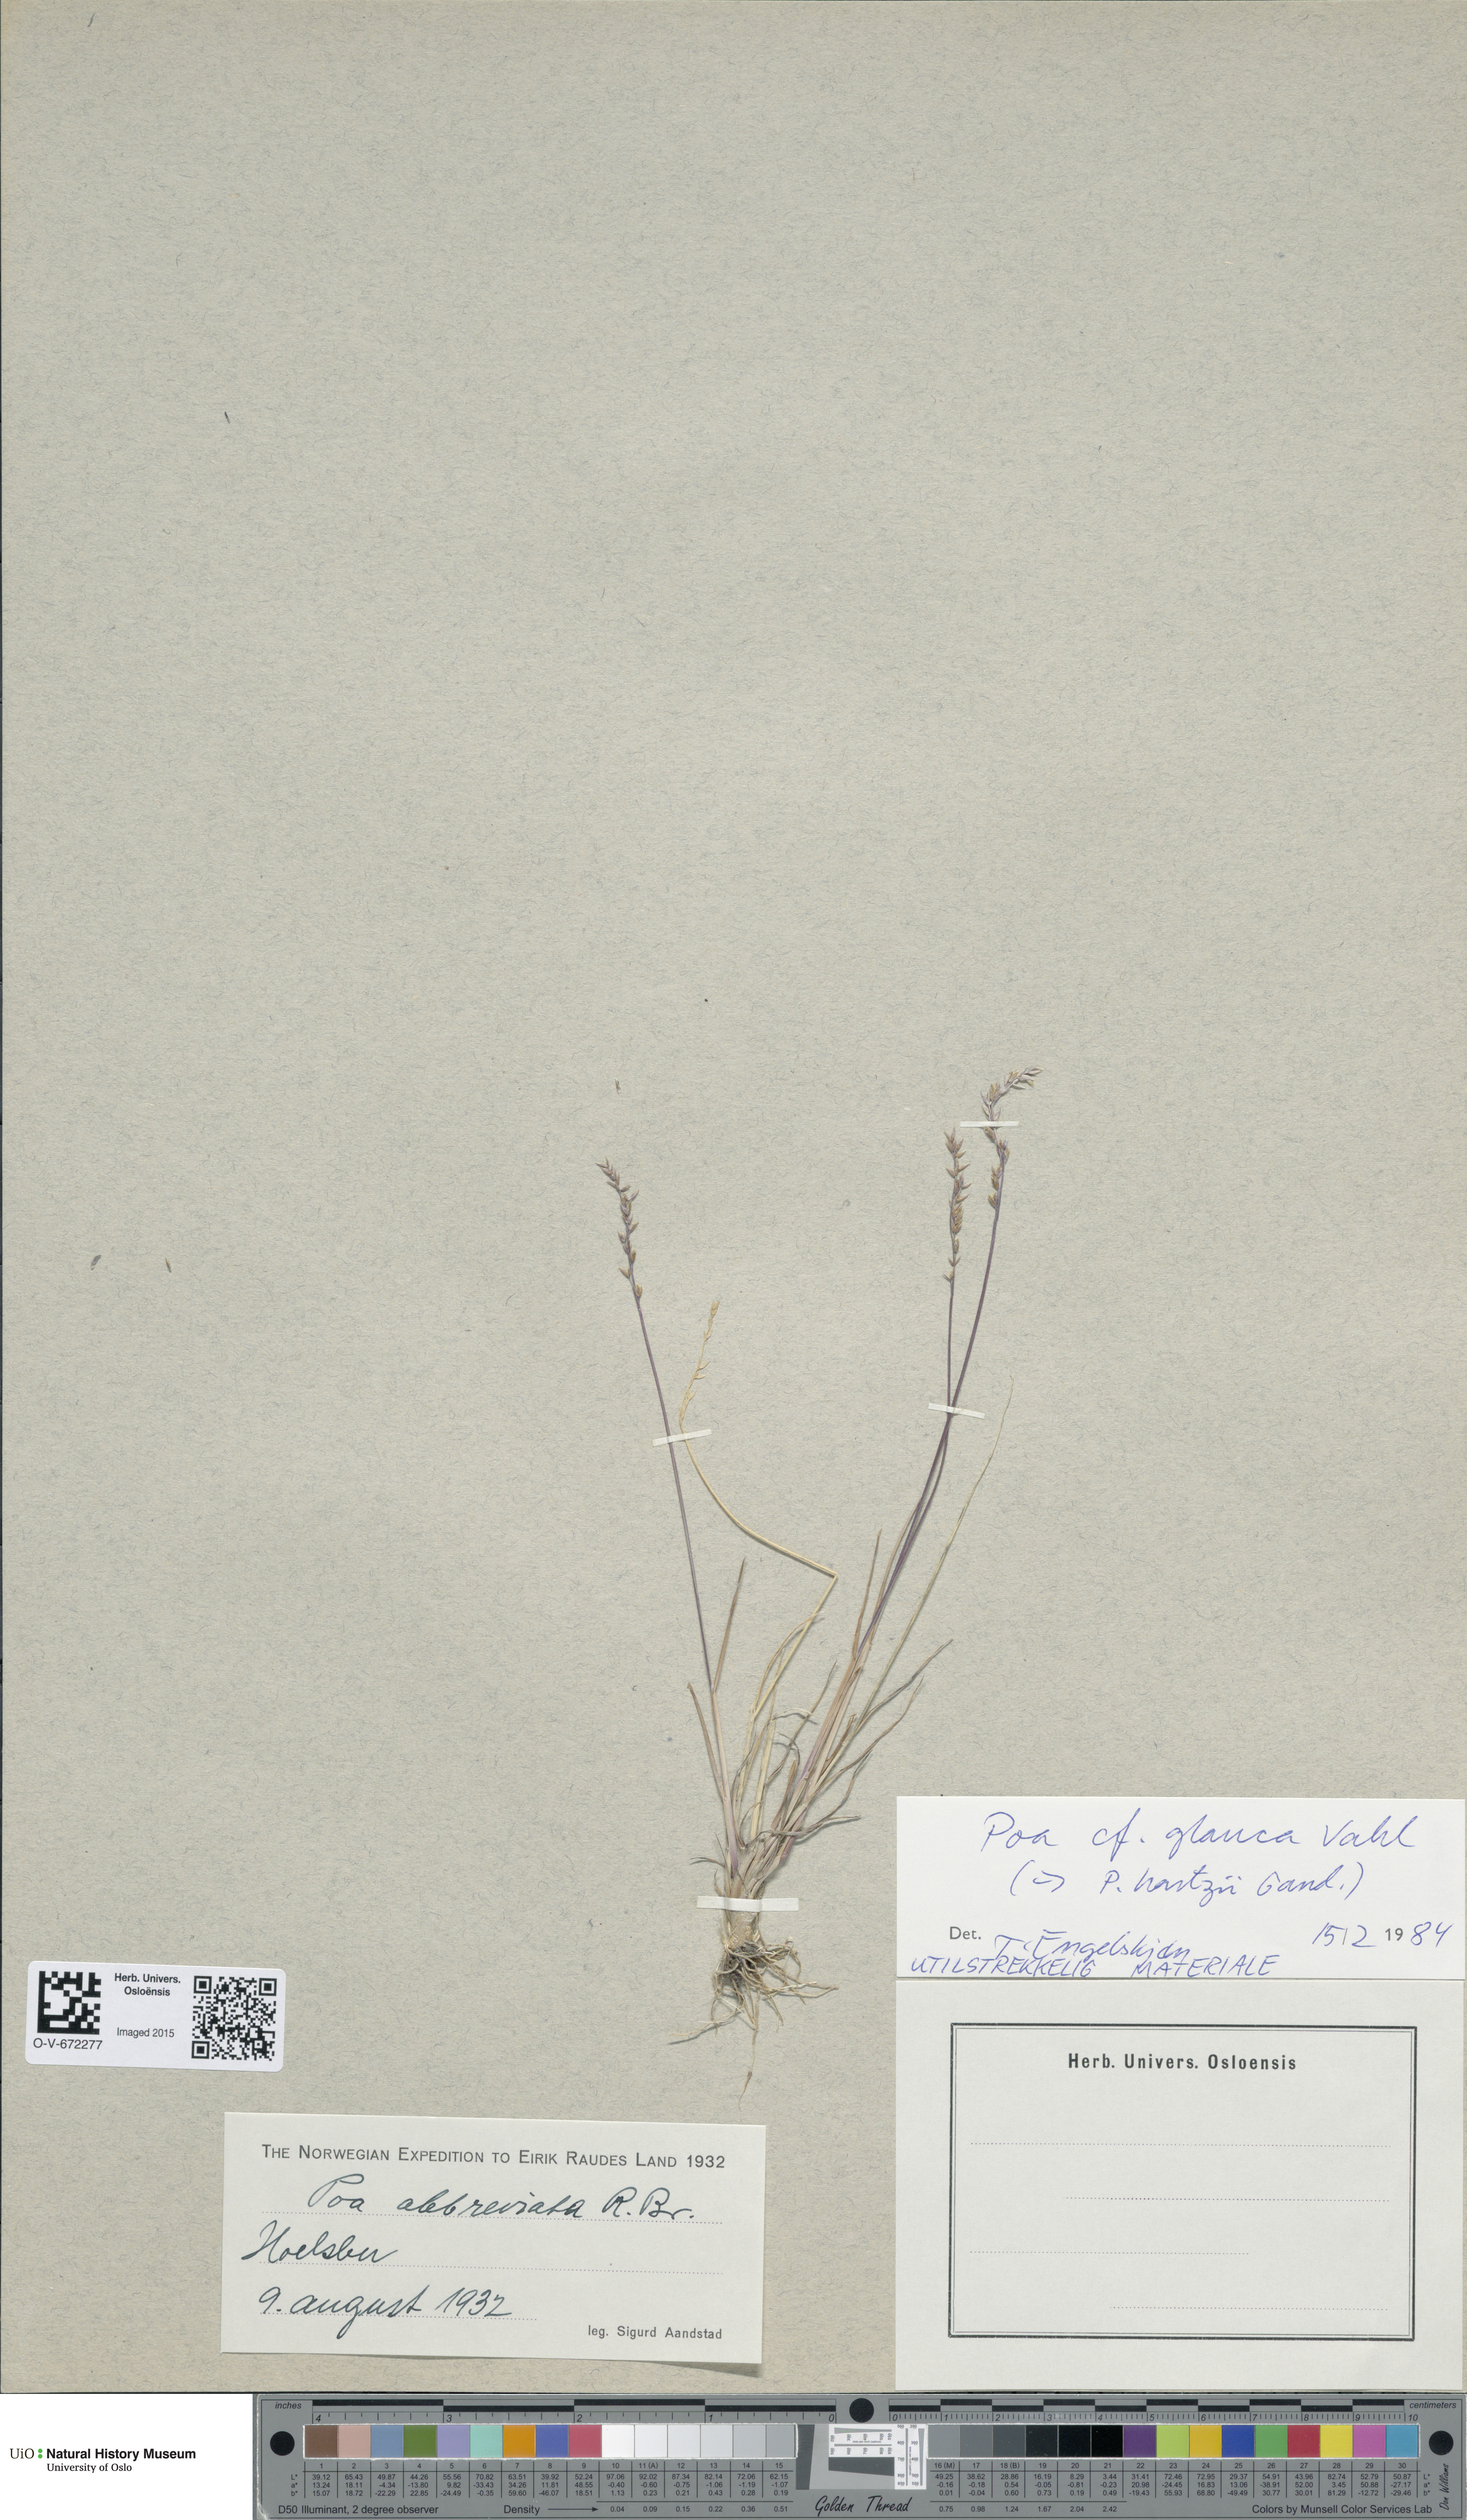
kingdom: Plantae
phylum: Tracheophyta
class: Liliopsida
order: Poales
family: Poaceae
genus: Poa
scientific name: Poa glauca
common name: Glaucous bluegrass
